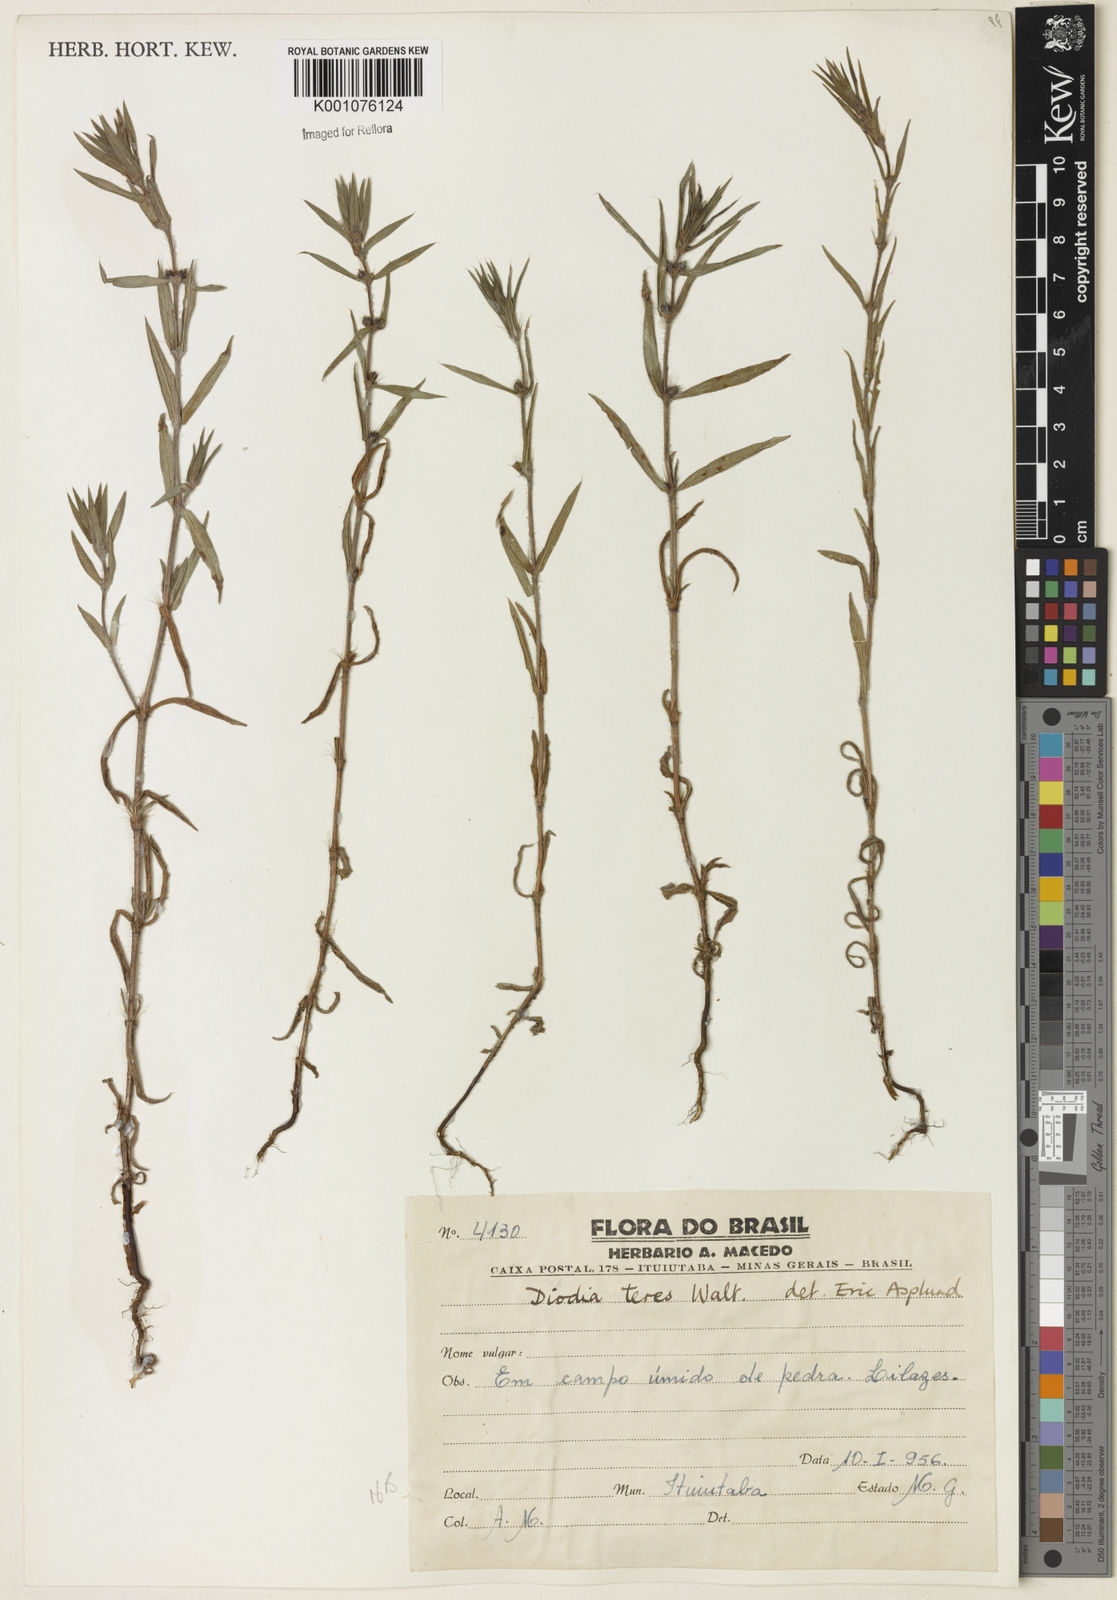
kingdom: Plantae
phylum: Tracheophyta
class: Magnoliopsida
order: Gentianales
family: Rubiaceae
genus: Hexasepalum
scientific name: Hexasepalum teres
